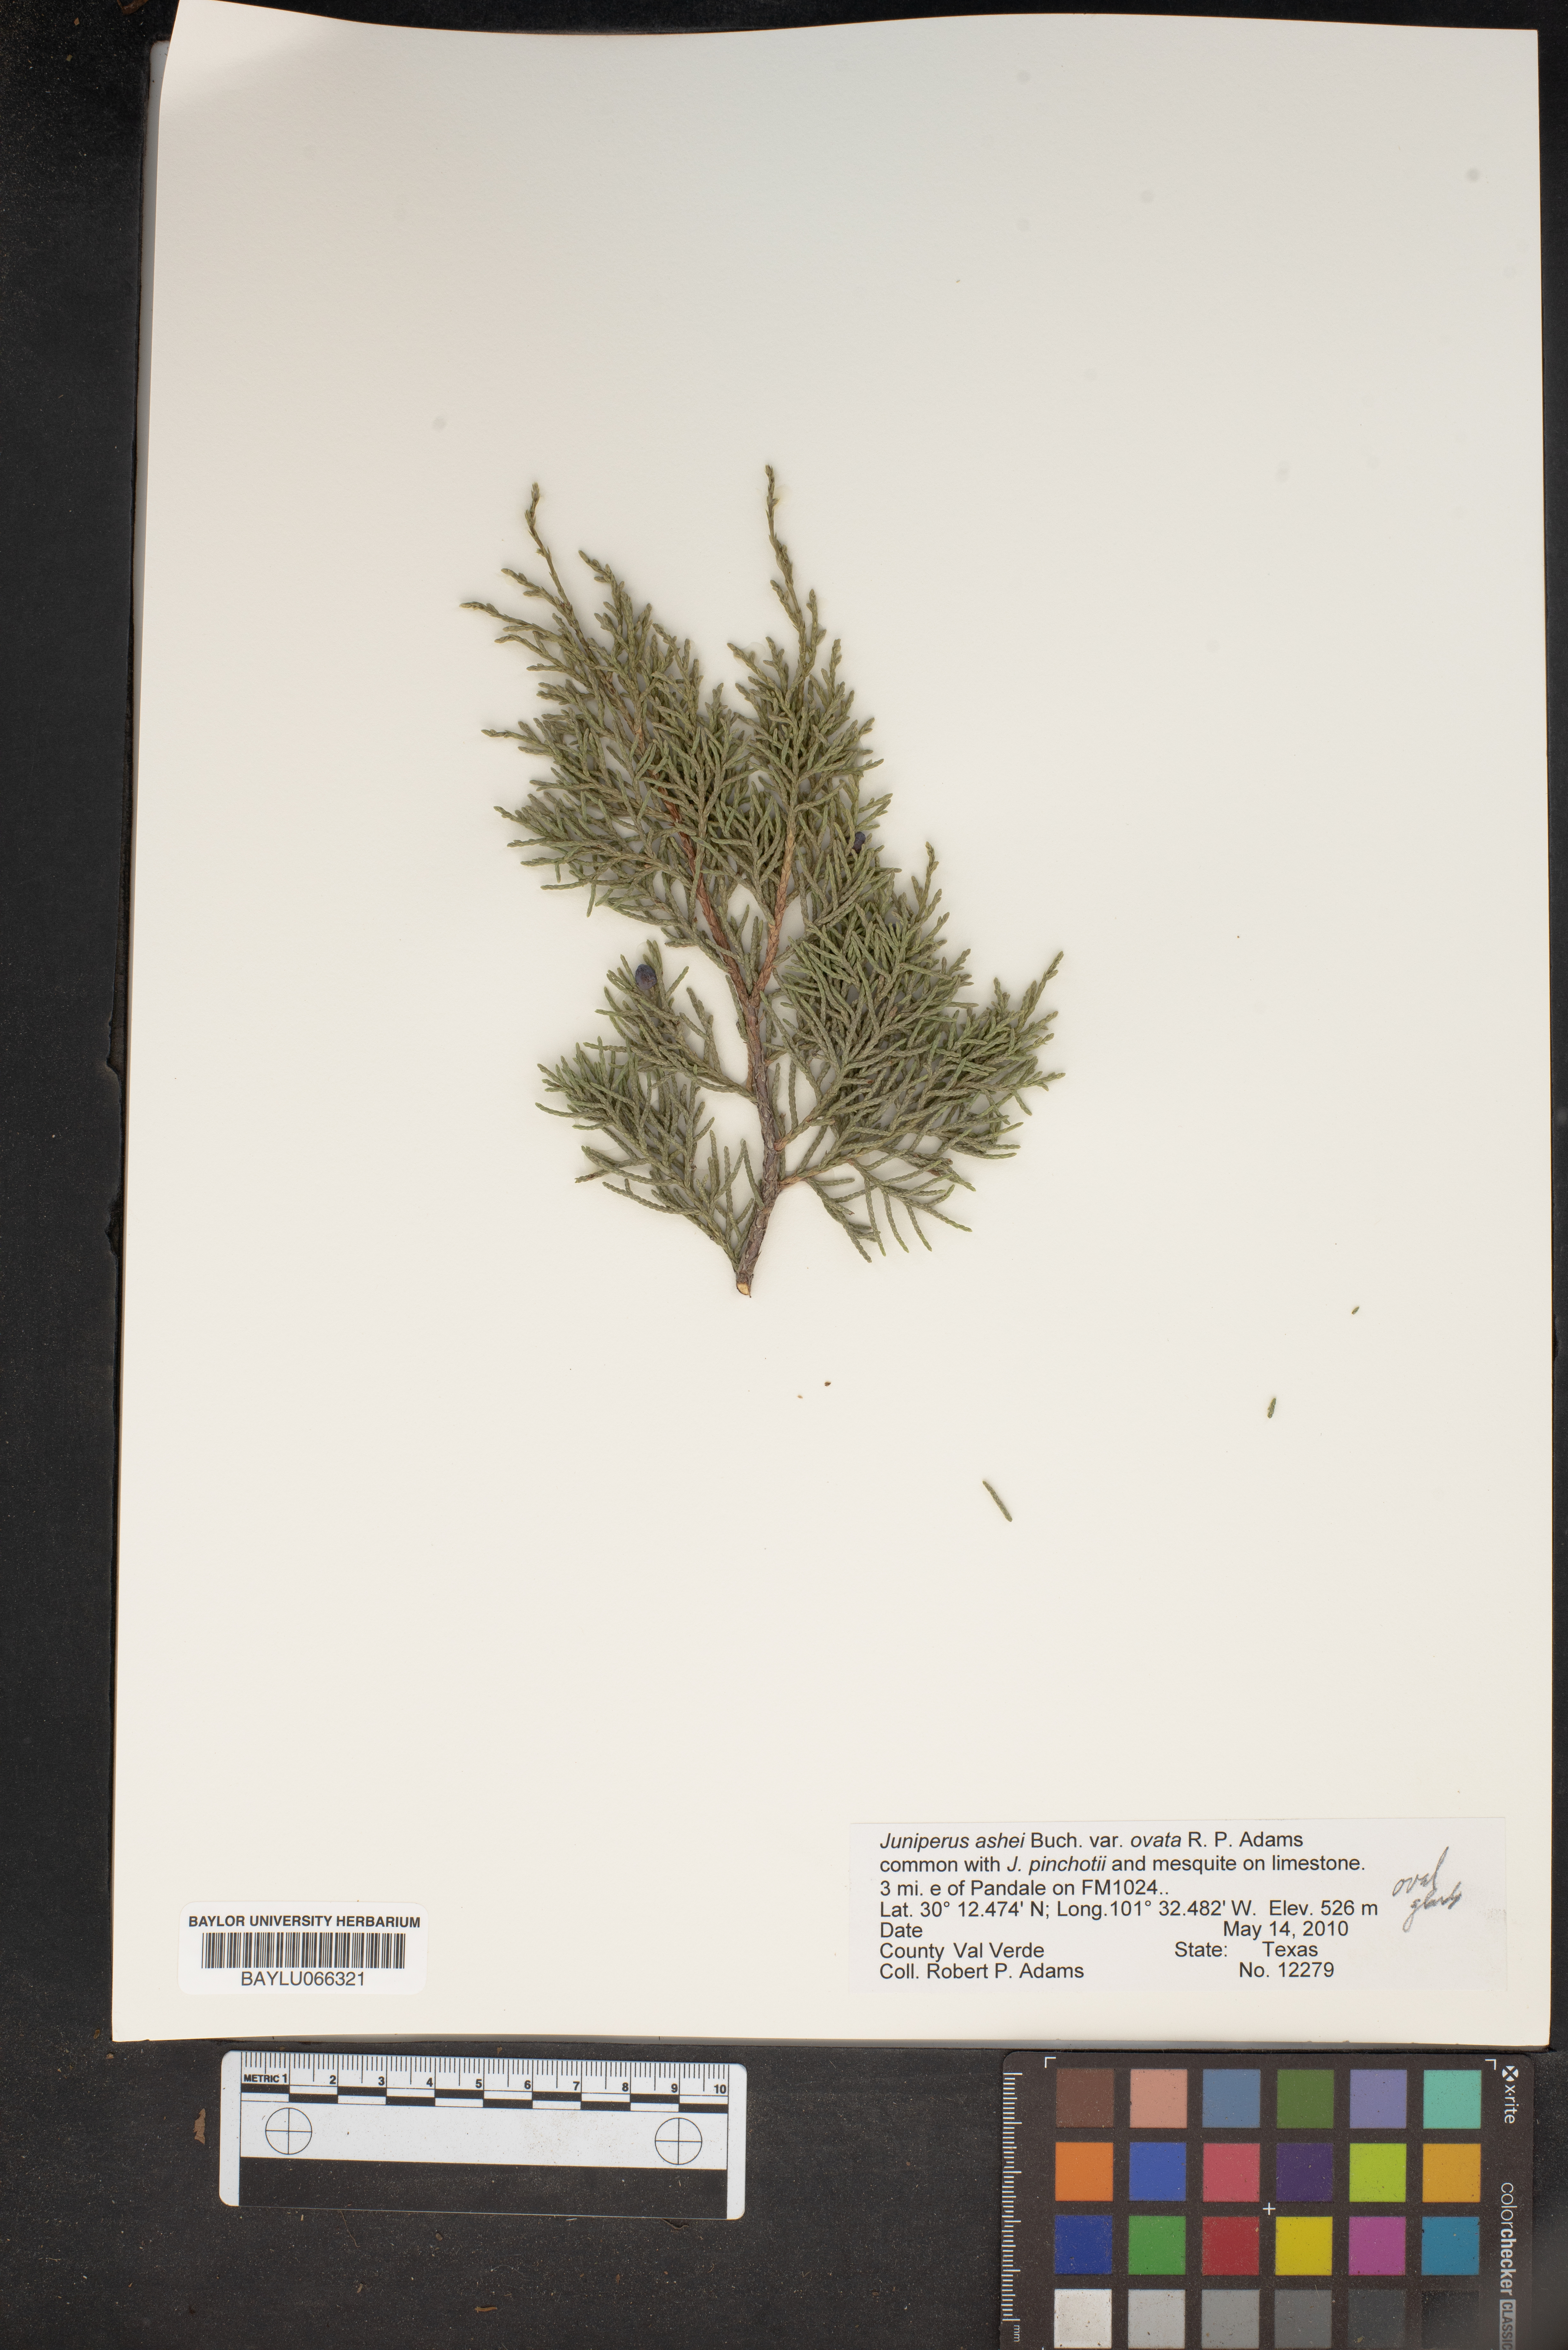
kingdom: Plantae
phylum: Tracheophyta
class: Pinopsida
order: Pinales
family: Cupressaceae
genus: Juniperus
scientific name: Juniperus ashei
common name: Mexican juniper
